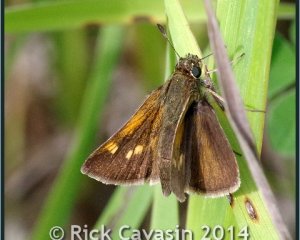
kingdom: Animalia
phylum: Arthropoda
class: Insecta
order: Lepidoptera
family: Hesperiidae
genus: Polites
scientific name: Polites themistocles
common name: Tawny-edged Skipper
